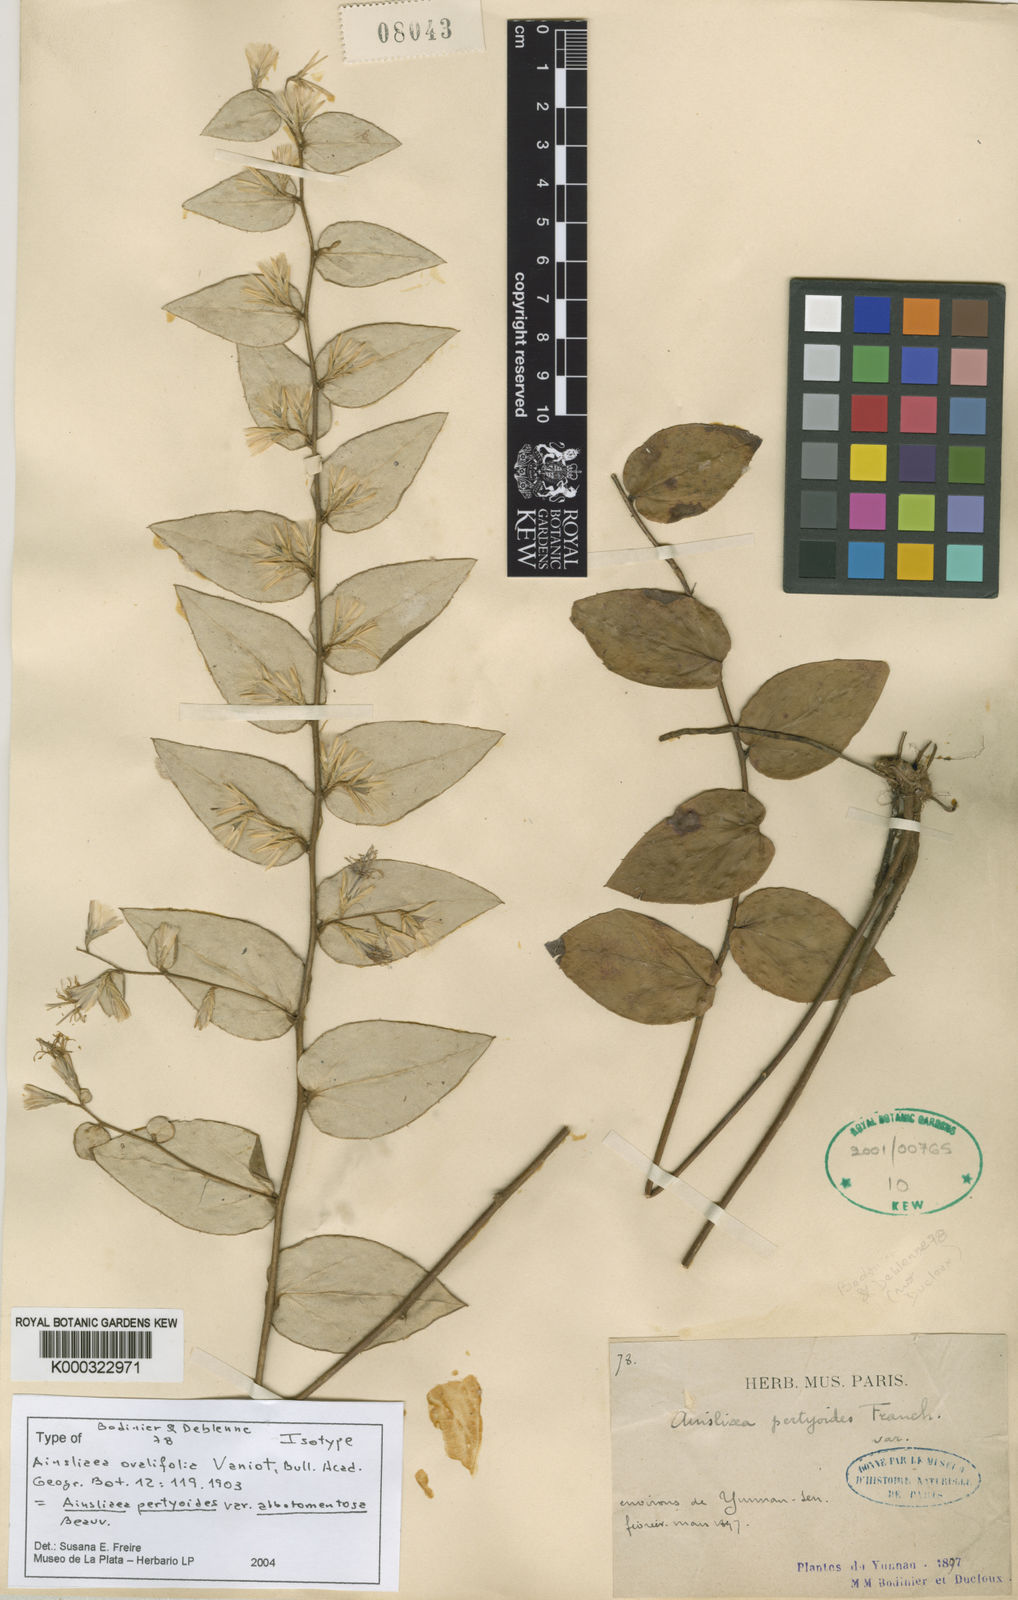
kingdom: Plantae
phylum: Tracheophyta
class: Magnoliopsida
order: Asterales
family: Asteraceae
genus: Ainsliaea
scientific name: Ainsliaea pertyoides
